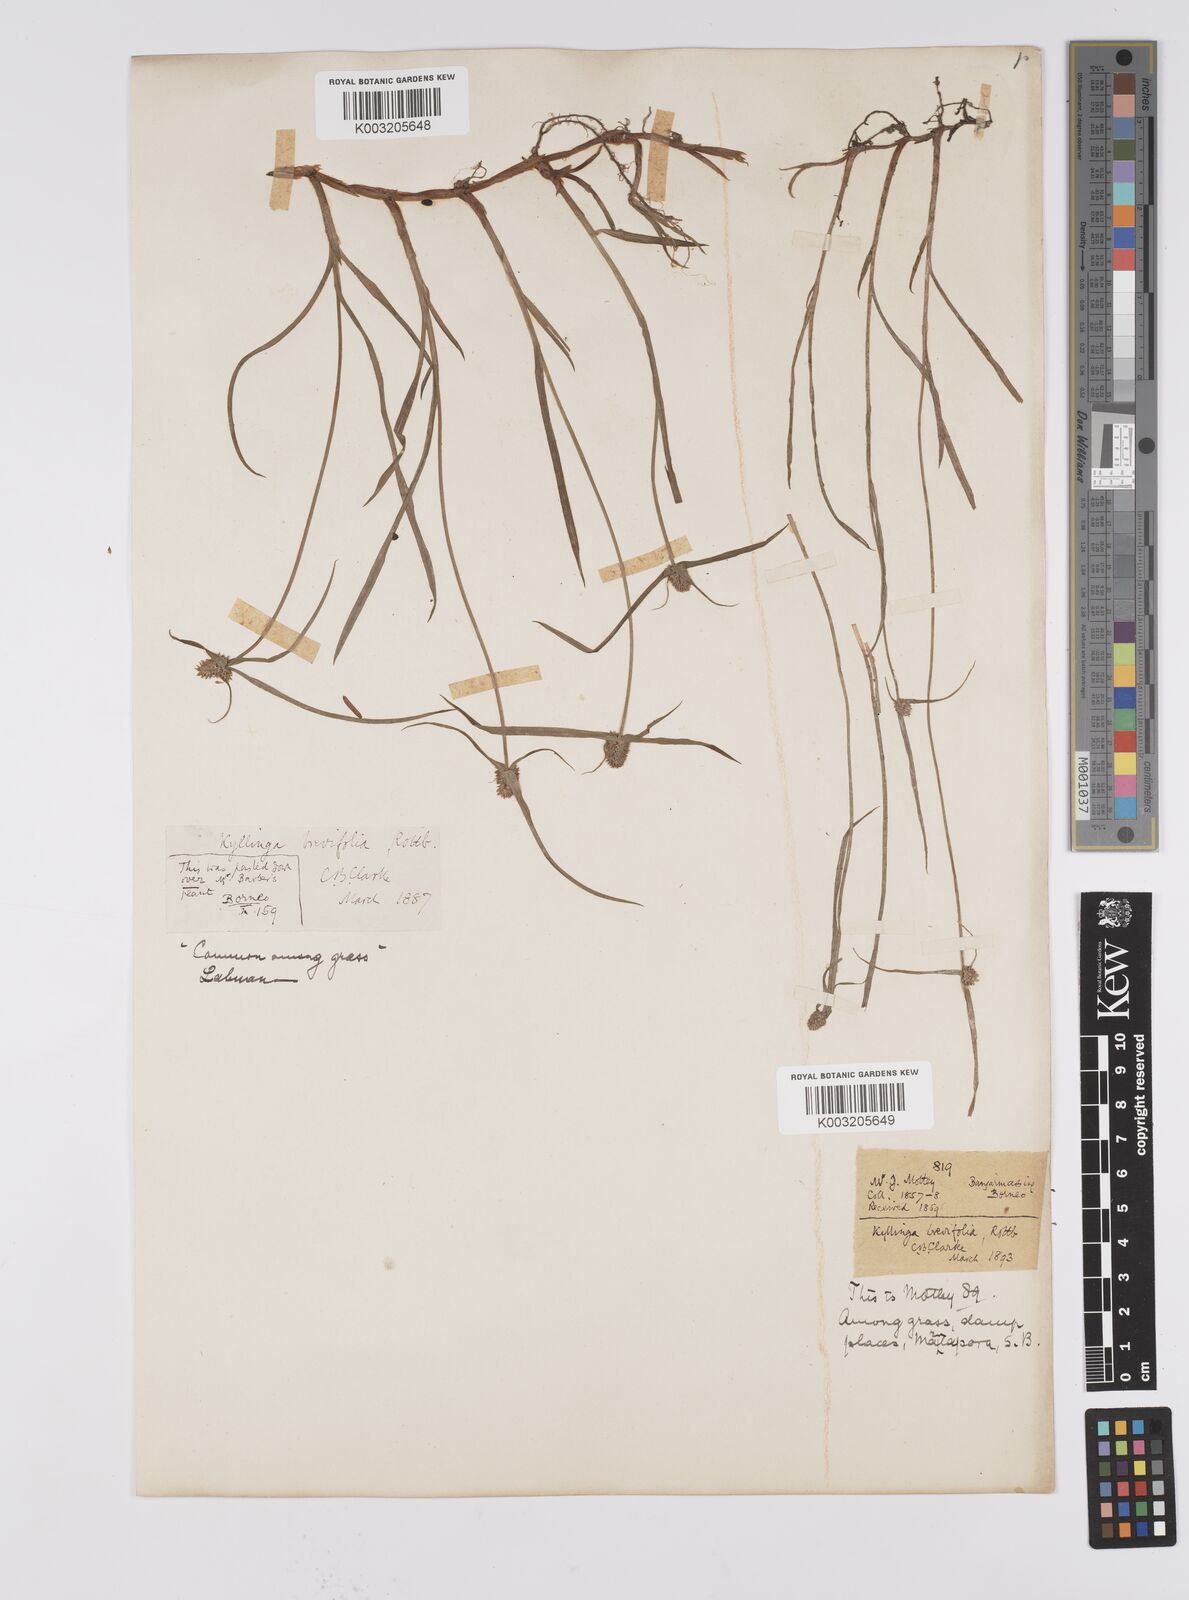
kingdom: Plantae
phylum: Tracheophyta
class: Liliopsida
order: Poales
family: Cyperaceae
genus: Cyperus
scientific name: Cyperus brevifolius
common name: Globe kyllinga
